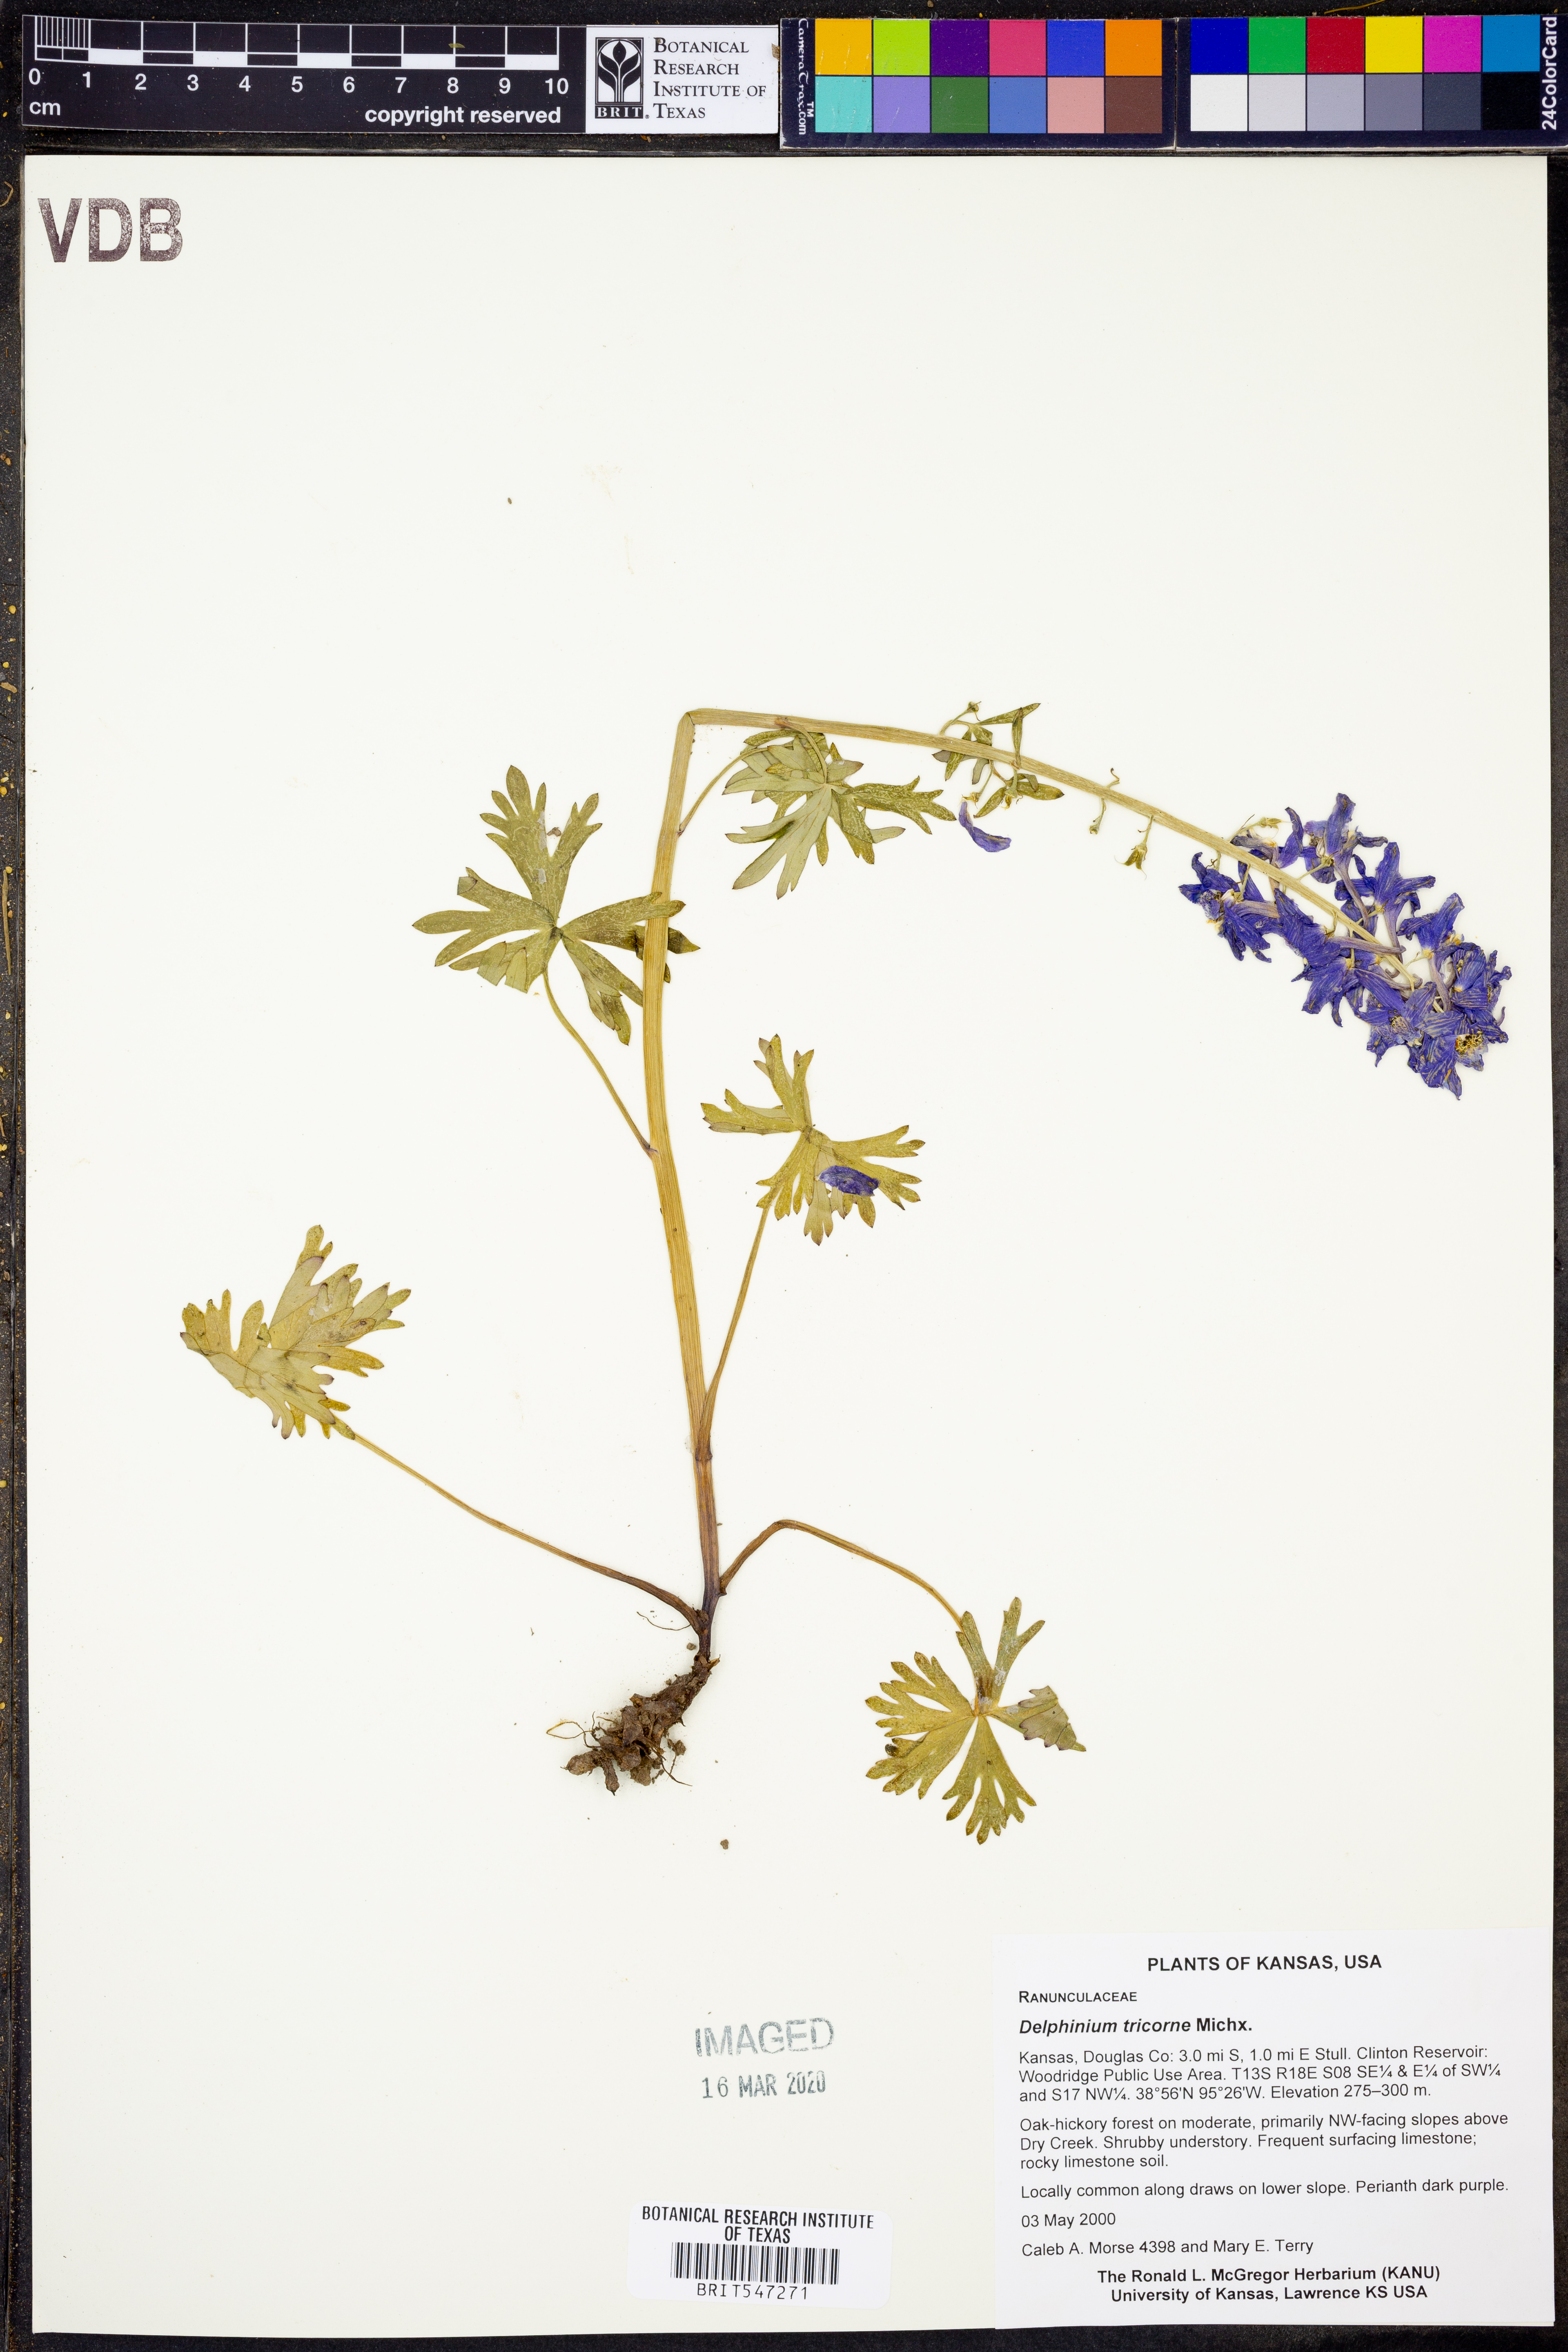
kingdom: Plantae
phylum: Tracheophyta
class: Magnoliopsida
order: Ranunculales
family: Ranunculaceae
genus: Delphinium
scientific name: Delphinium tricorne
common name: Dwarf larkspur
